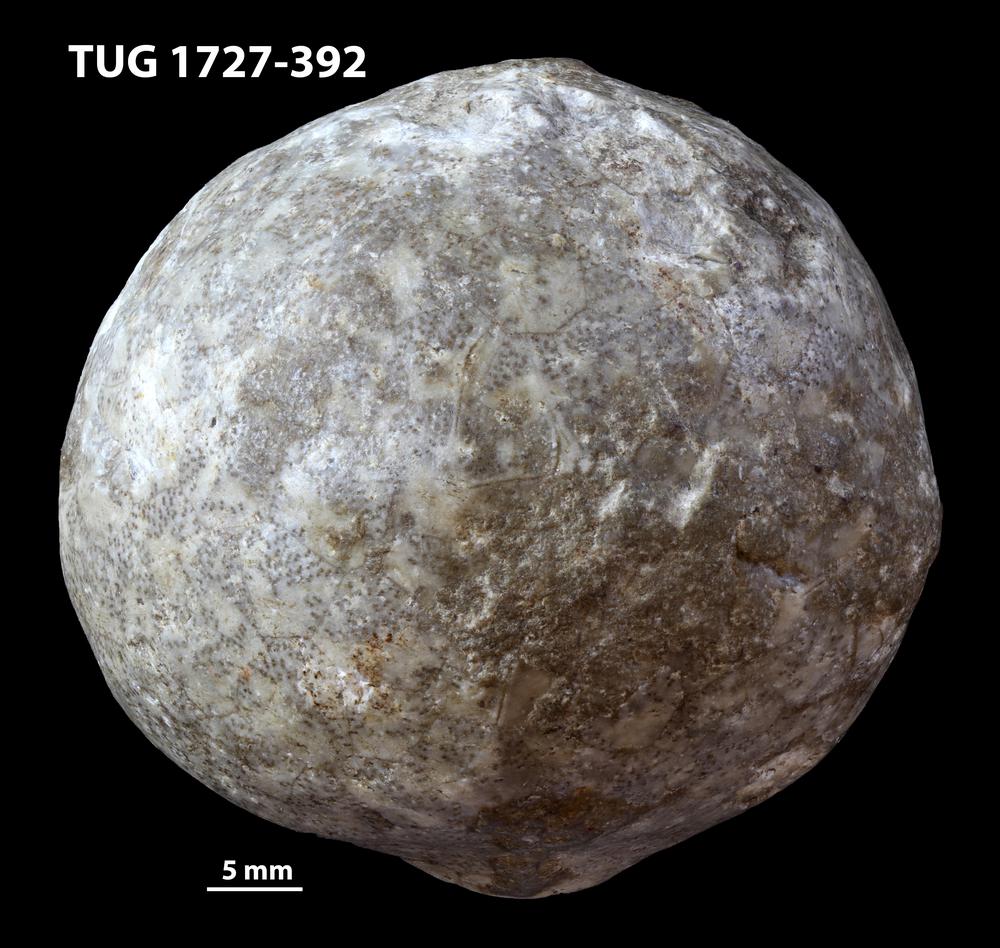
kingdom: Animalia
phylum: Echinodermata
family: Sphaeronitidae
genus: Eucystis
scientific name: Eucystis Glyptosphaerites leuchtenbergi
